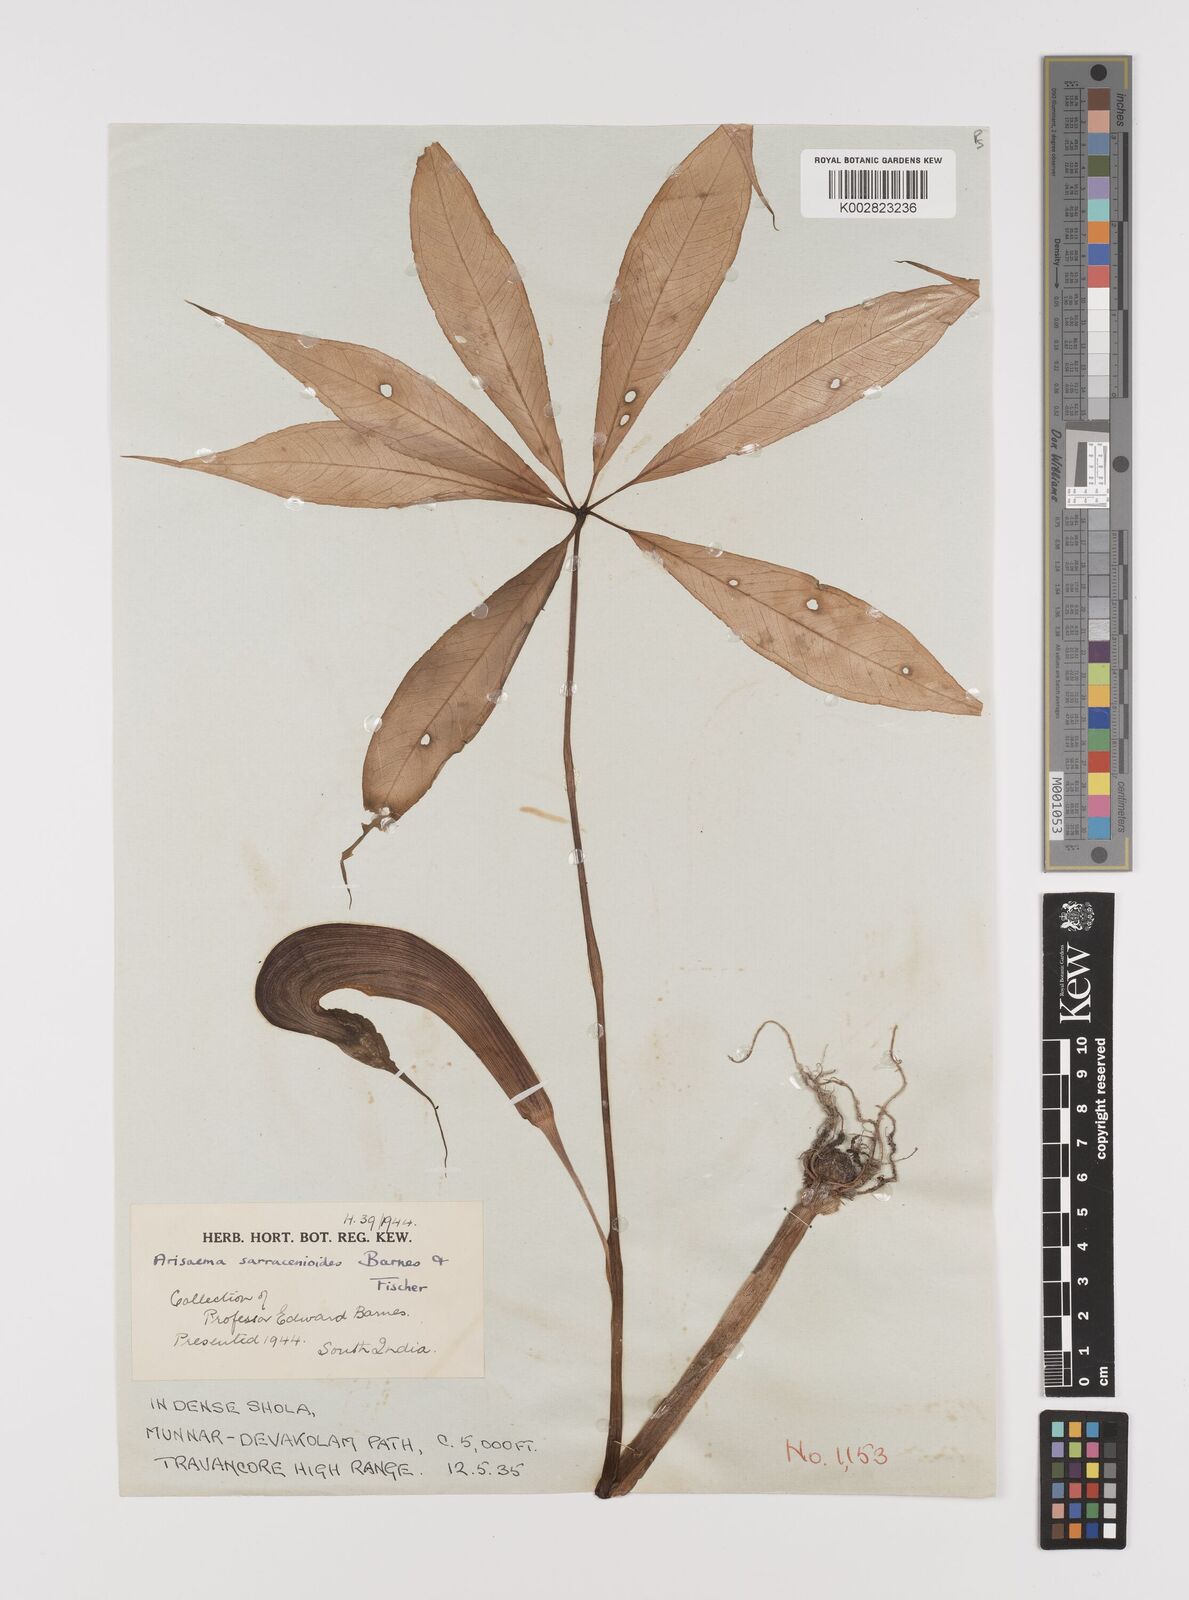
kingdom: Plantae
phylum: Tracheophyta
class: Liliopsida
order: Alismatales
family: Araceae
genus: Arisaema
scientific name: Arisaema sarracenioides
